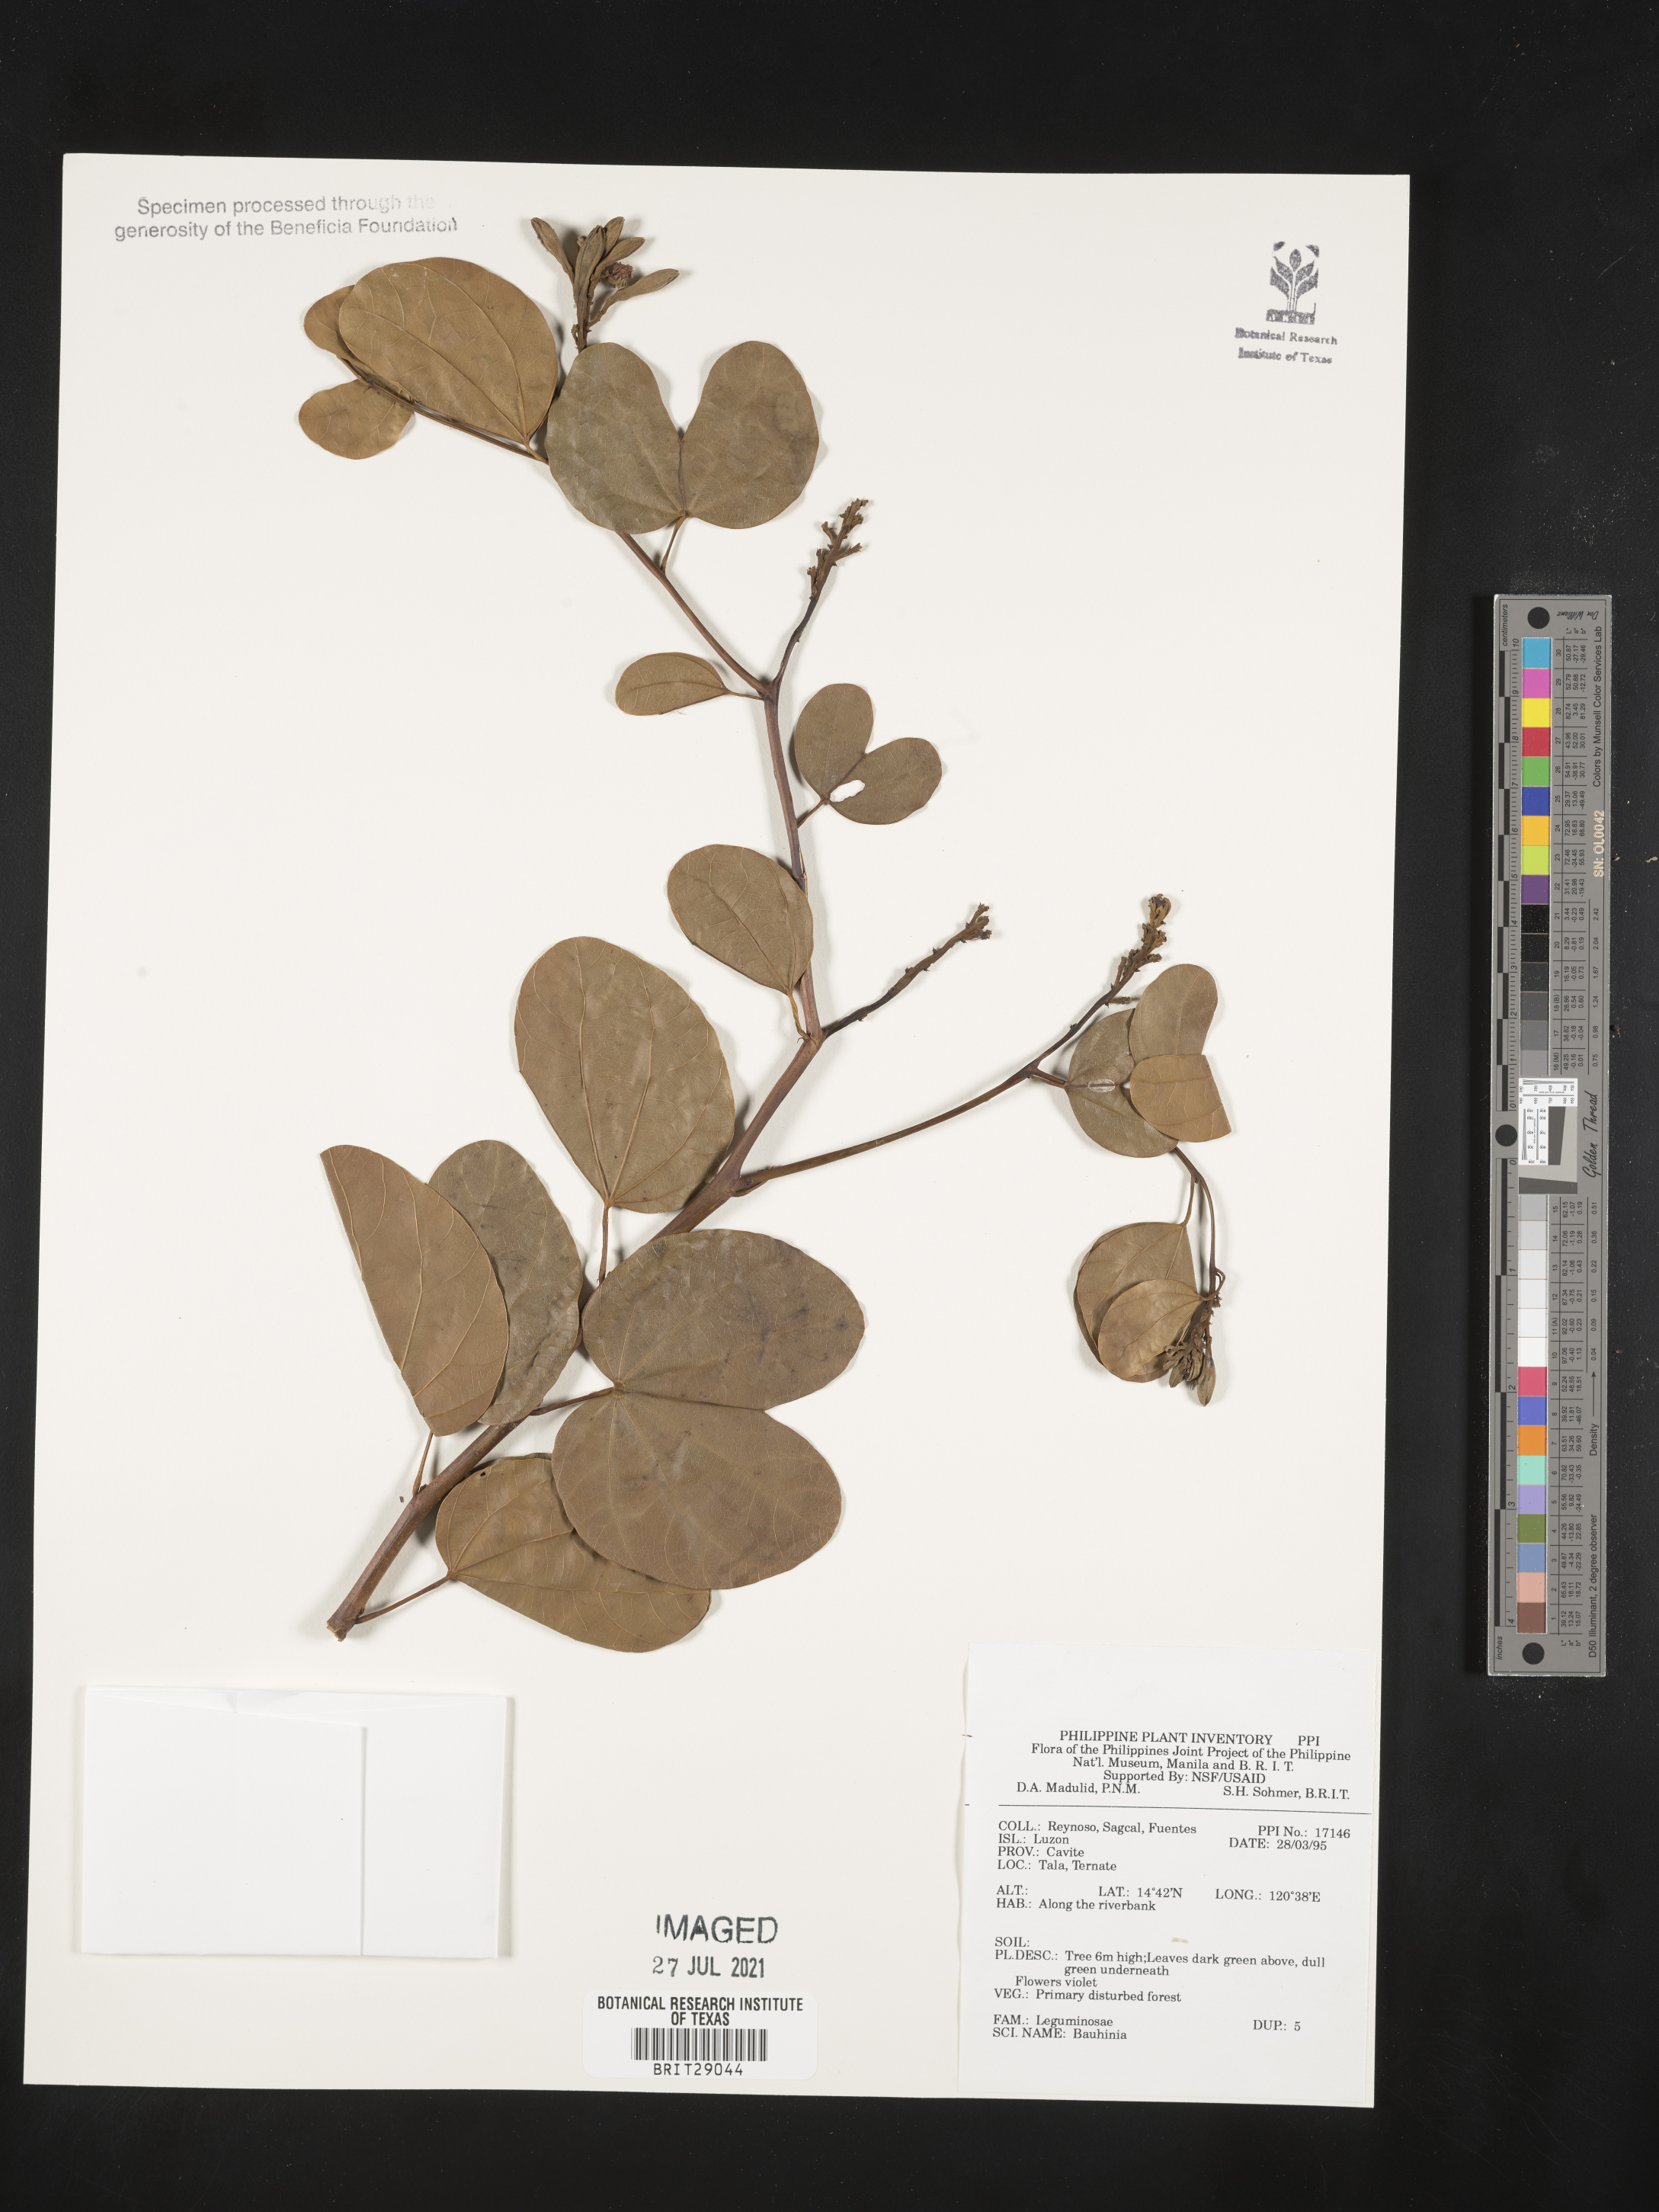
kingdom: Plantae
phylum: Tracheophyta
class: Magnoliopsida
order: Fabales
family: Fabaceae
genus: Bauhinia
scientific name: Bauhinia
